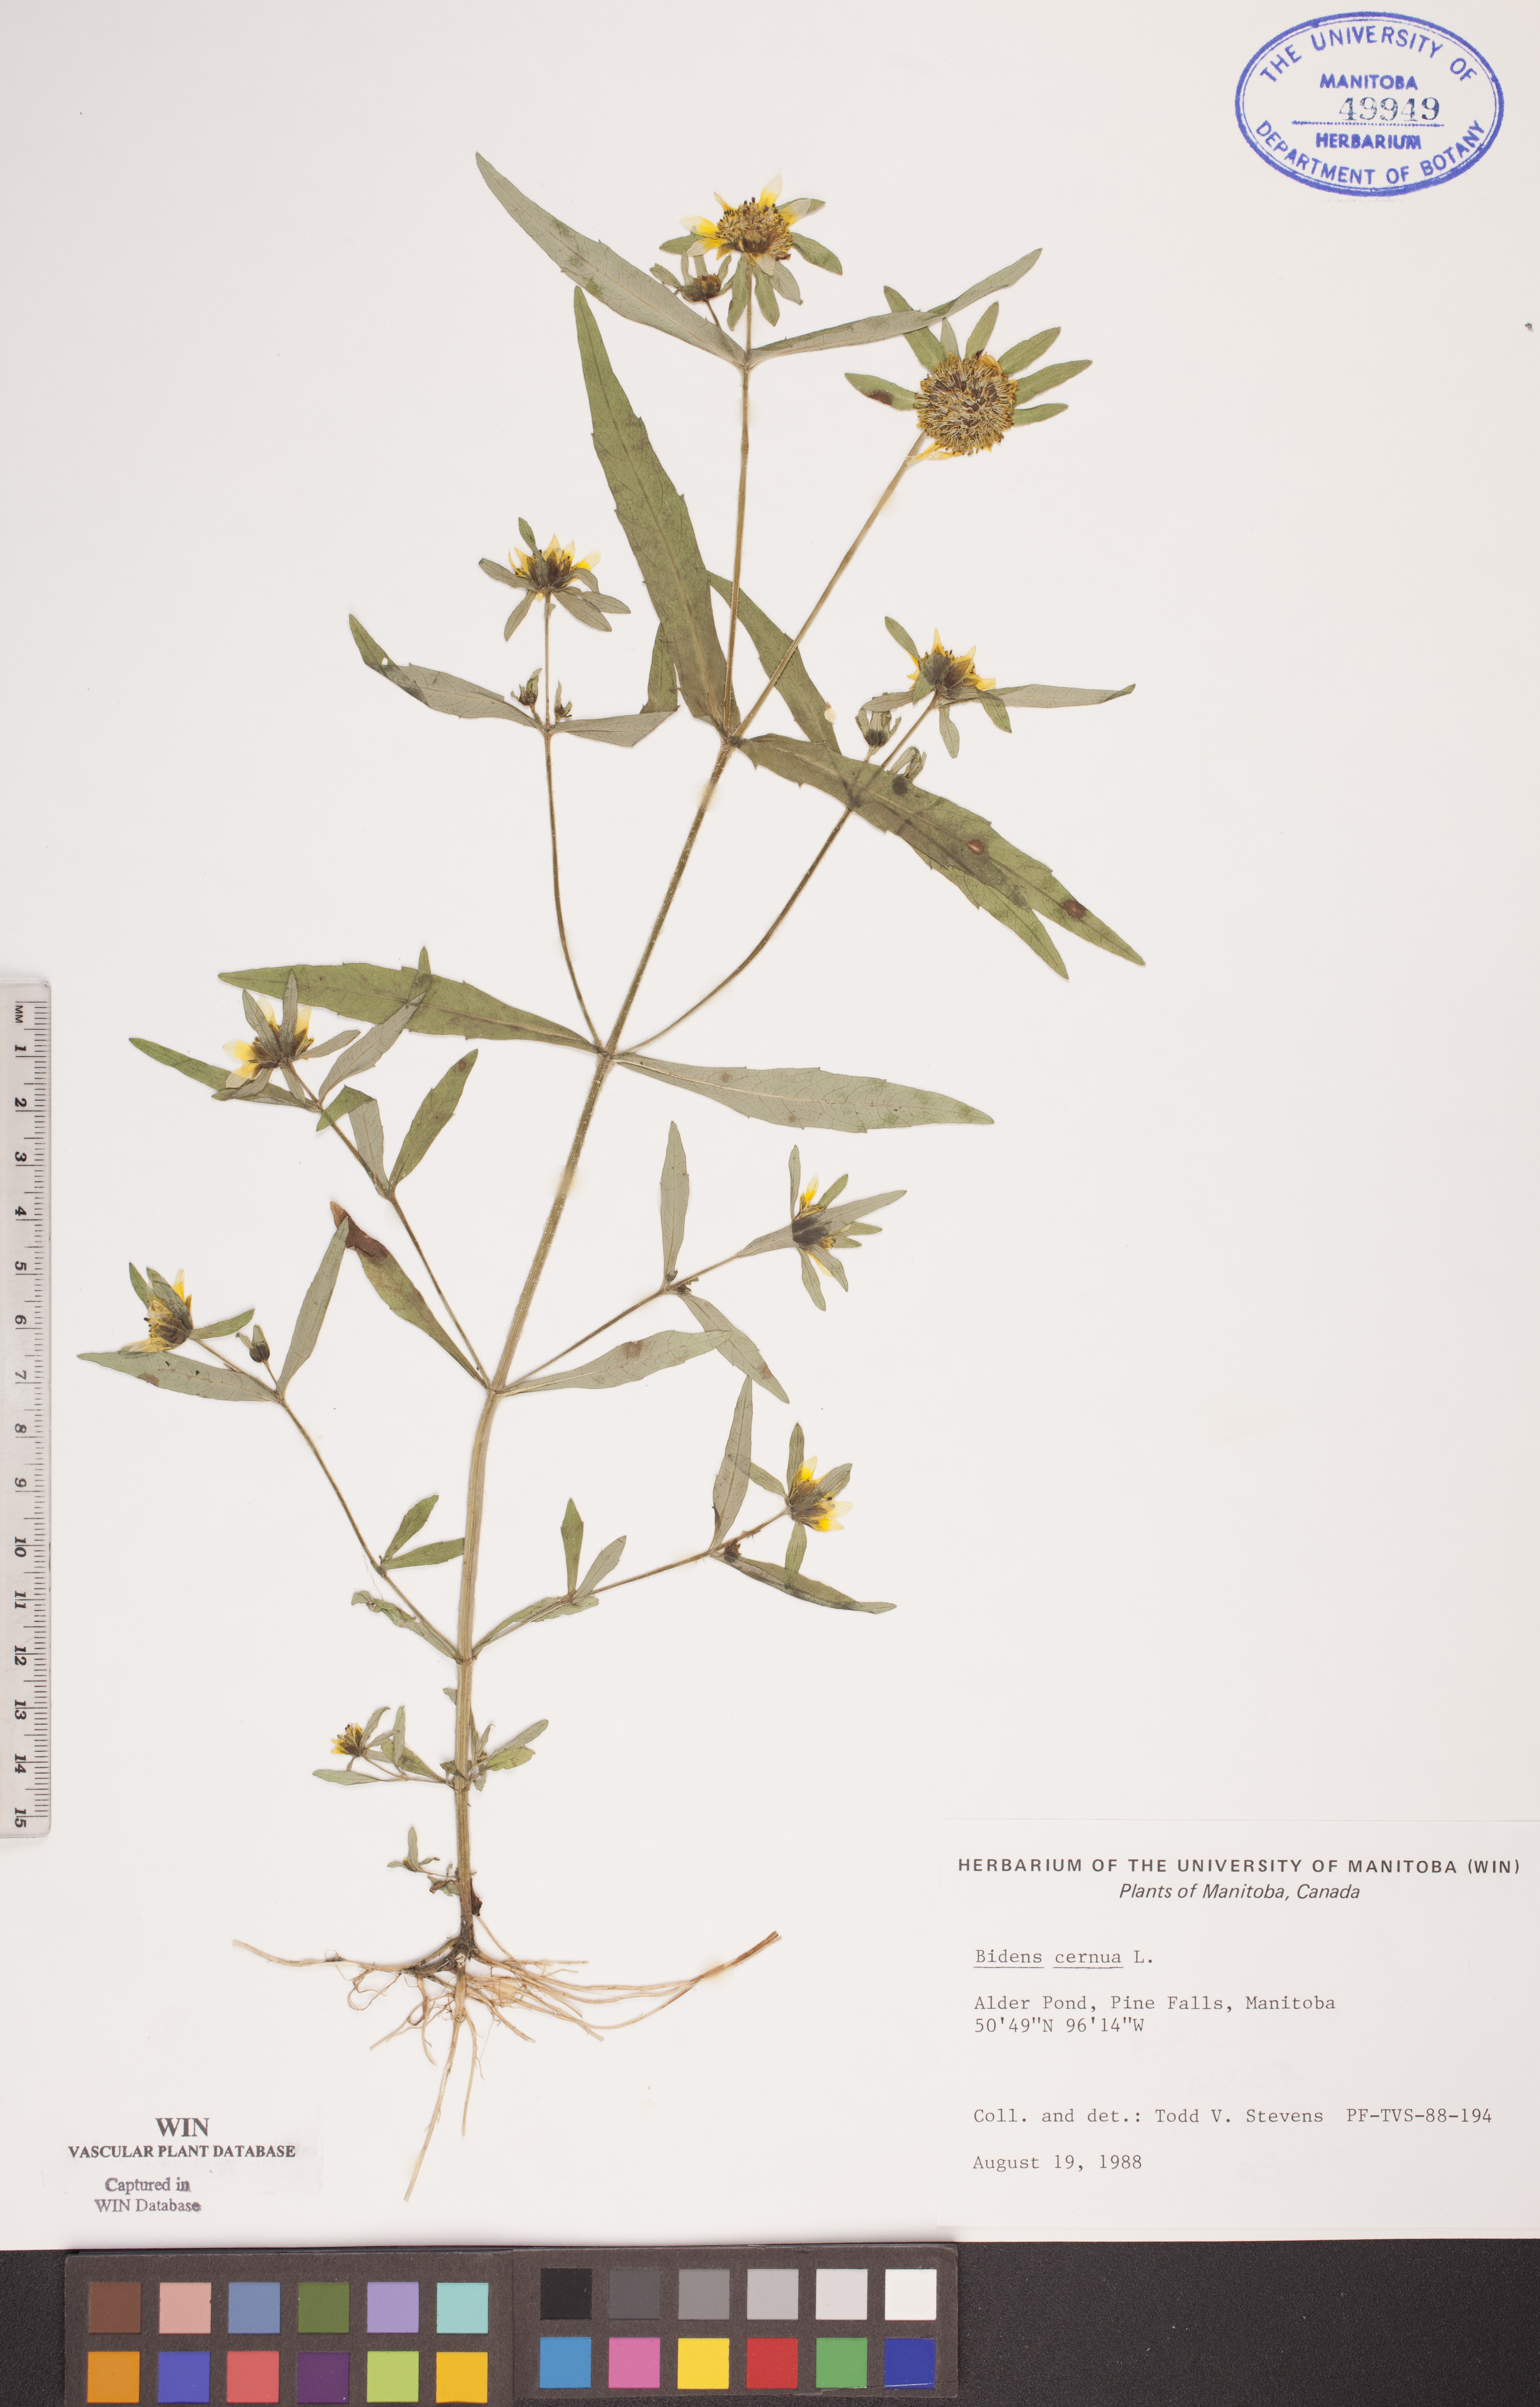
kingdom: Plantae
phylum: Tracheophyta
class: Magnoliopsida
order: Asterales
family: Asteraceae
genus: Bidens
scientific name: Bidens cernua
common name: Nodding bur-marigold
